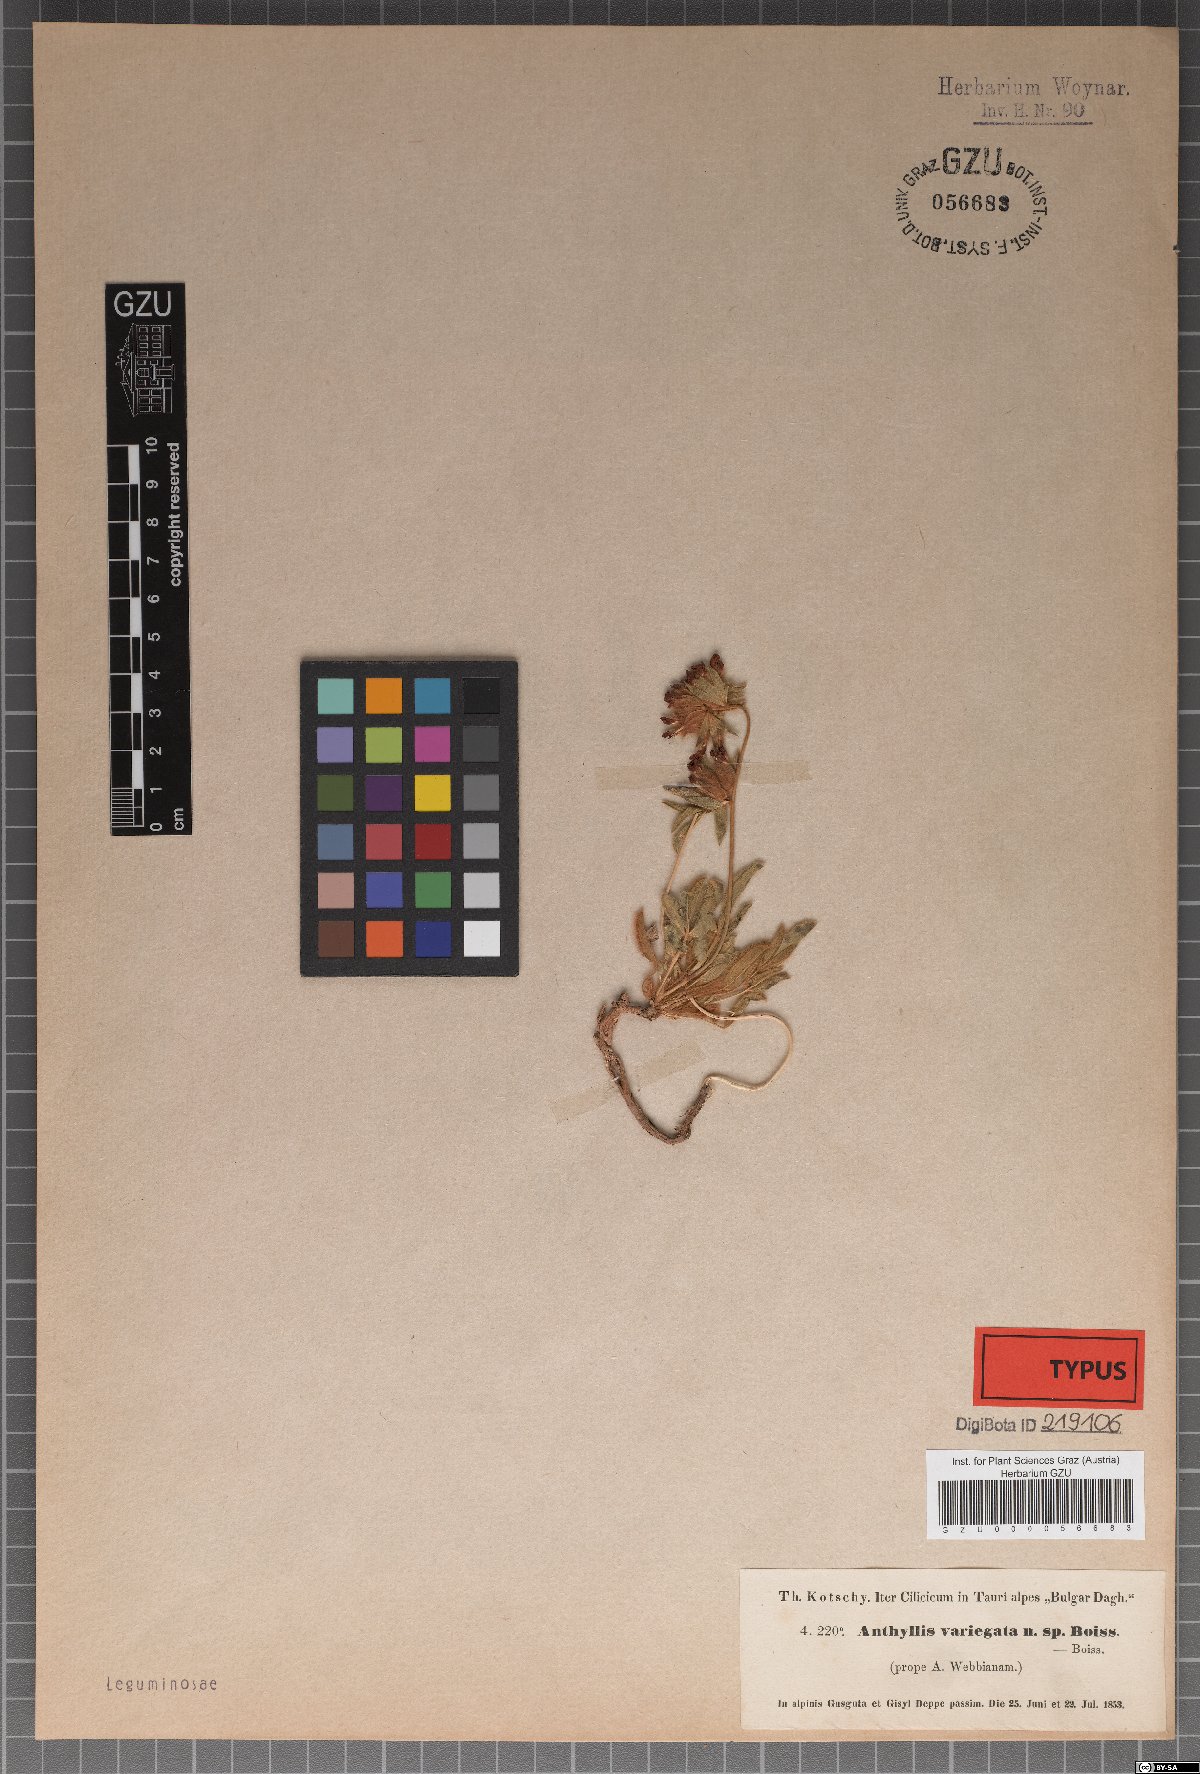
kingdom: Plantae
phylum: Tracheophyta
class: Magnoliopsida
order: Fabales
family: Fabaceae
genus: Anthyllis
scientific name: Anthyllis variegata
